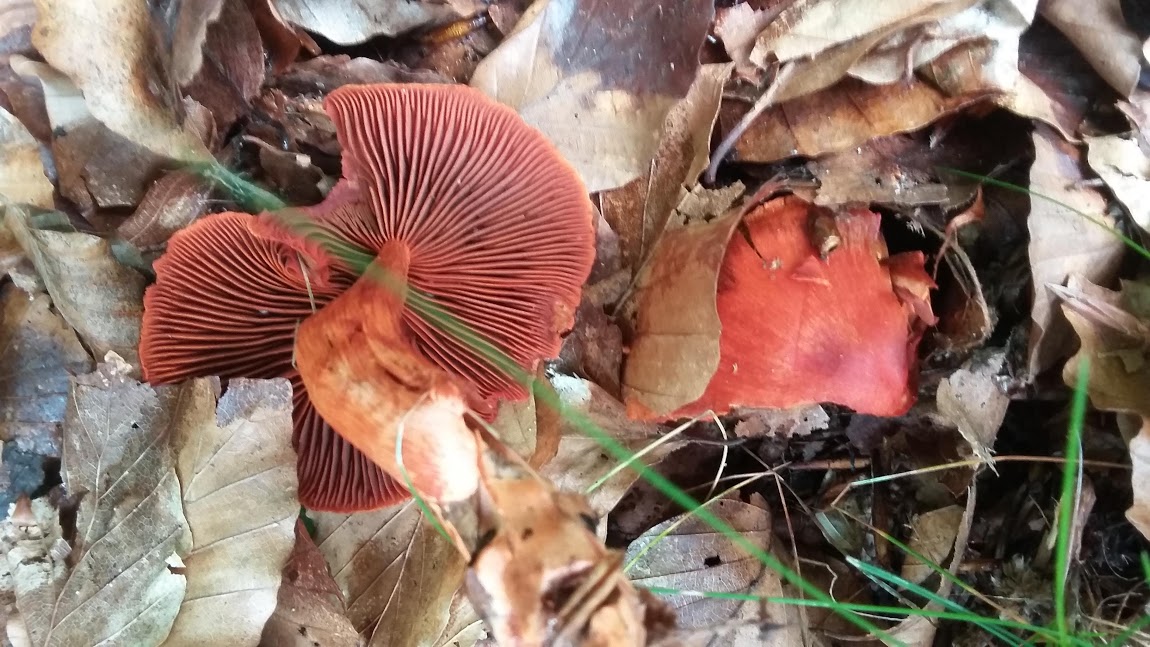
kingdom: Fungi
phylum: Basidiomycota
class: Agaricomycetes
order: Agaricales
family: Cortinariaceae
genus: Cortinarius
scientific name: Cortinarius cinnabarinus
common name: cinnober-slørhat
